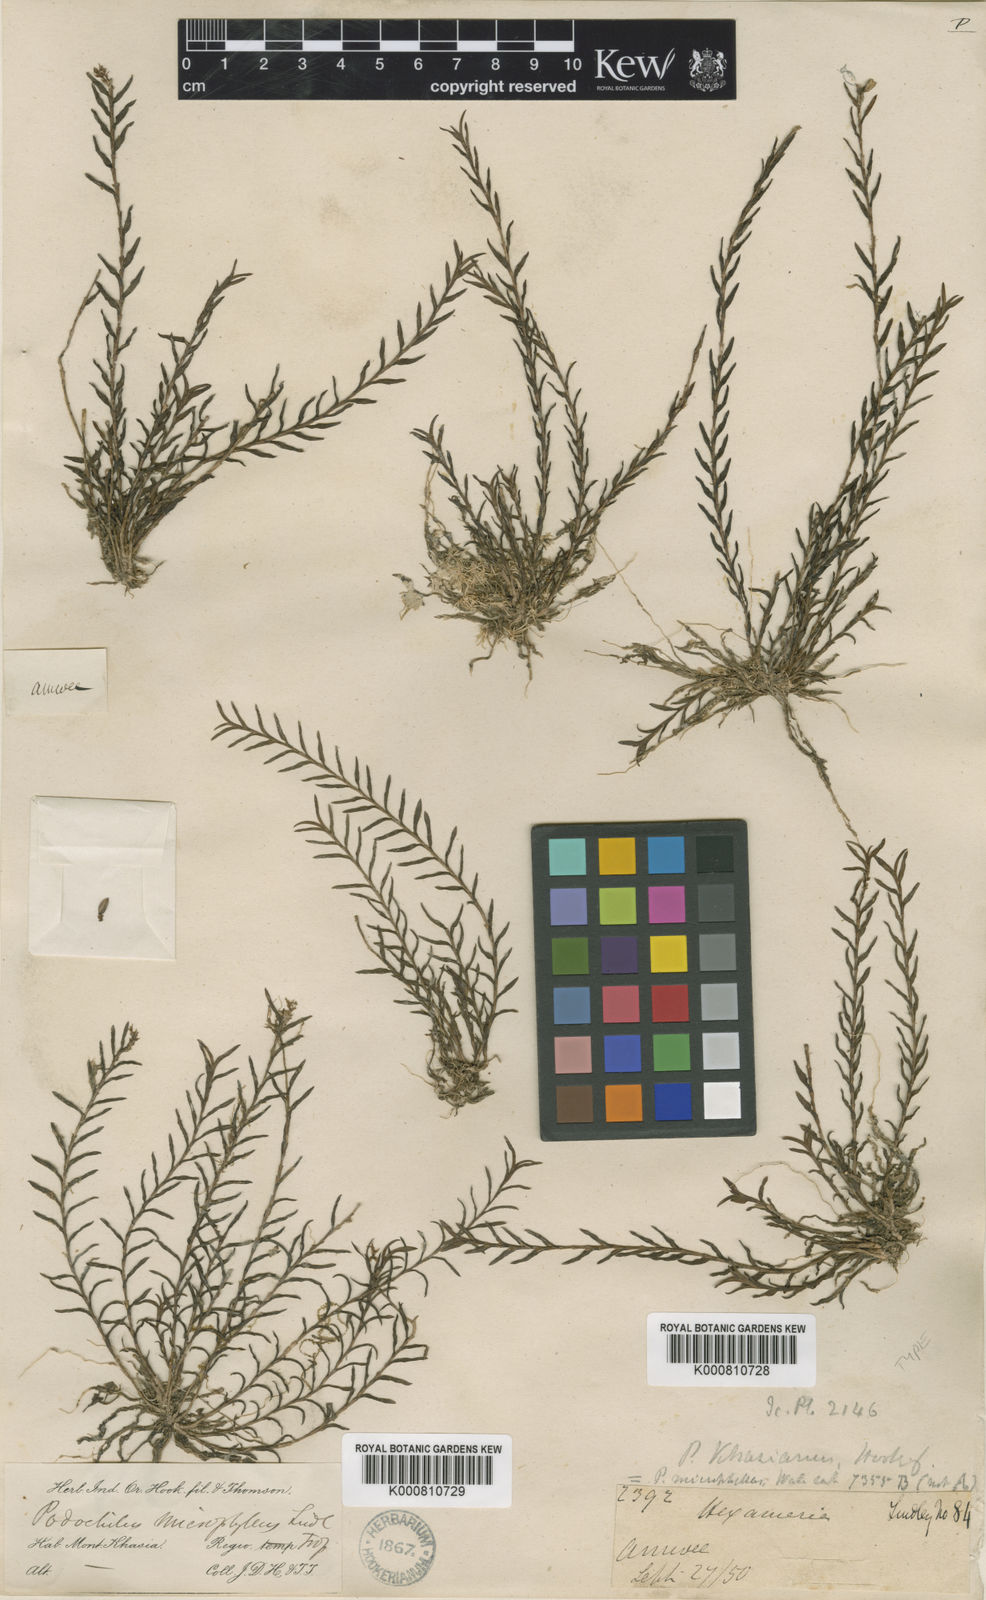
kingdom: Plantae
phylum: Tracheophyta
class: Liliopsida
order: Asparagales
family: Orchidaceae
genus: Podochilus
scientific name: Podochilus microphyllus
